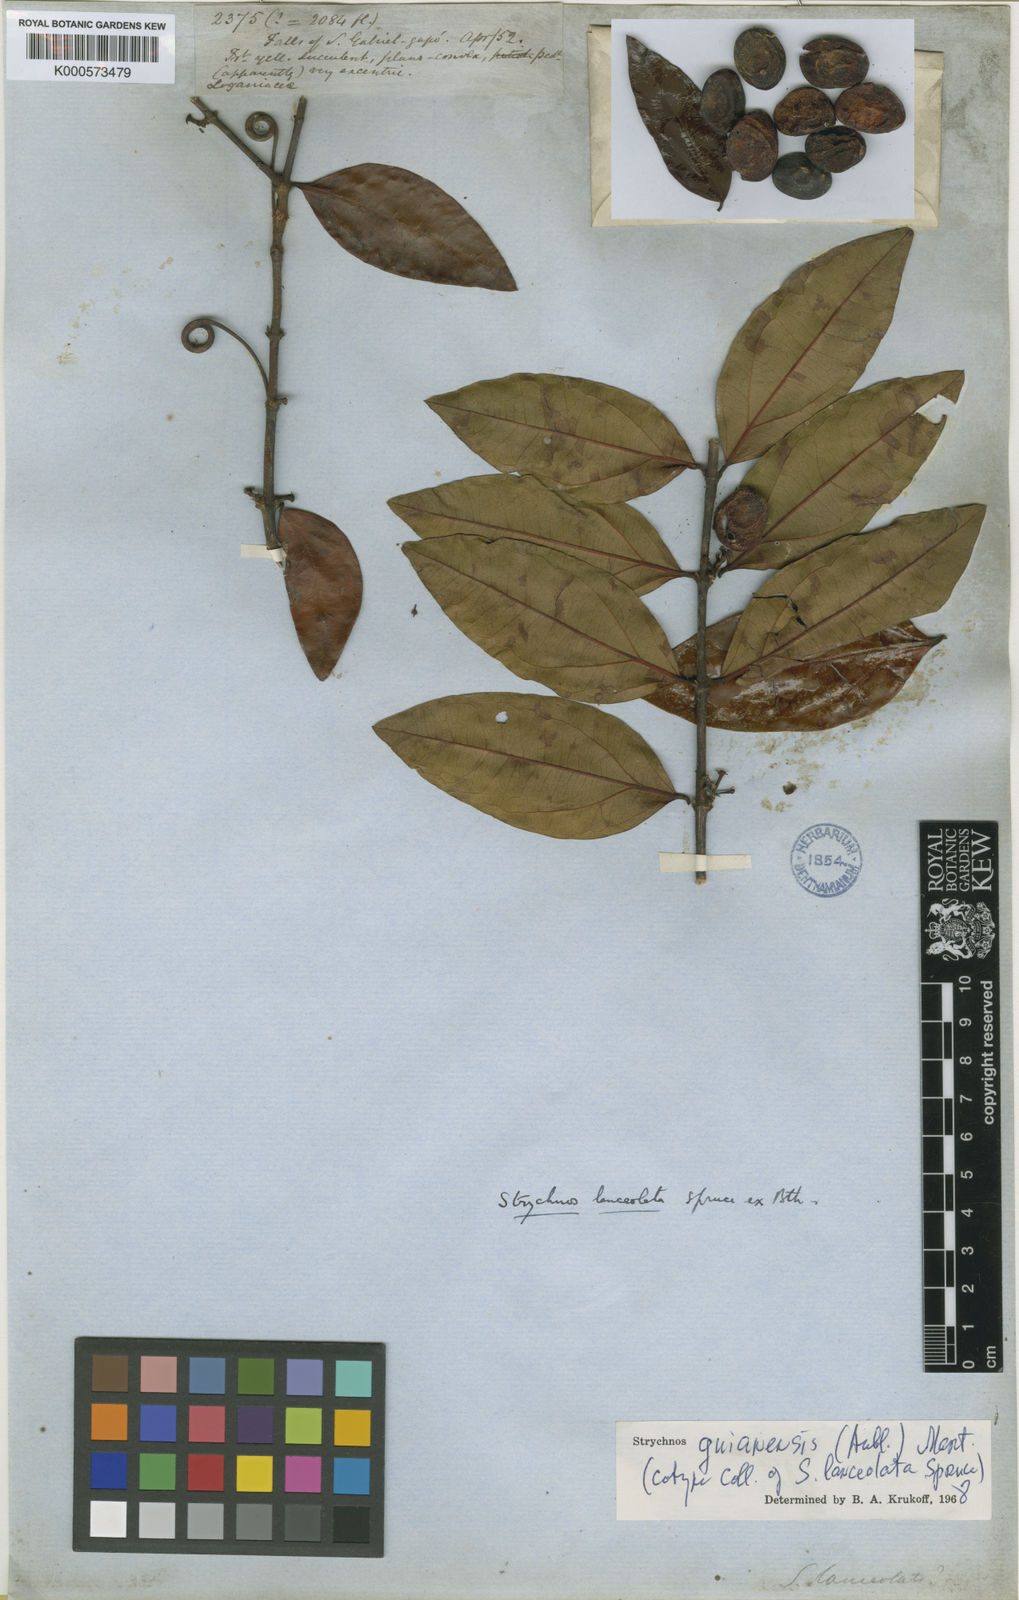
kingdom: Plantae
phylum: Tracheophyta
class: Magnoliopsida
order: Gentianales
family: Loganiaceae
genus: Strychnos
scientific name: Strychnos guianensis
